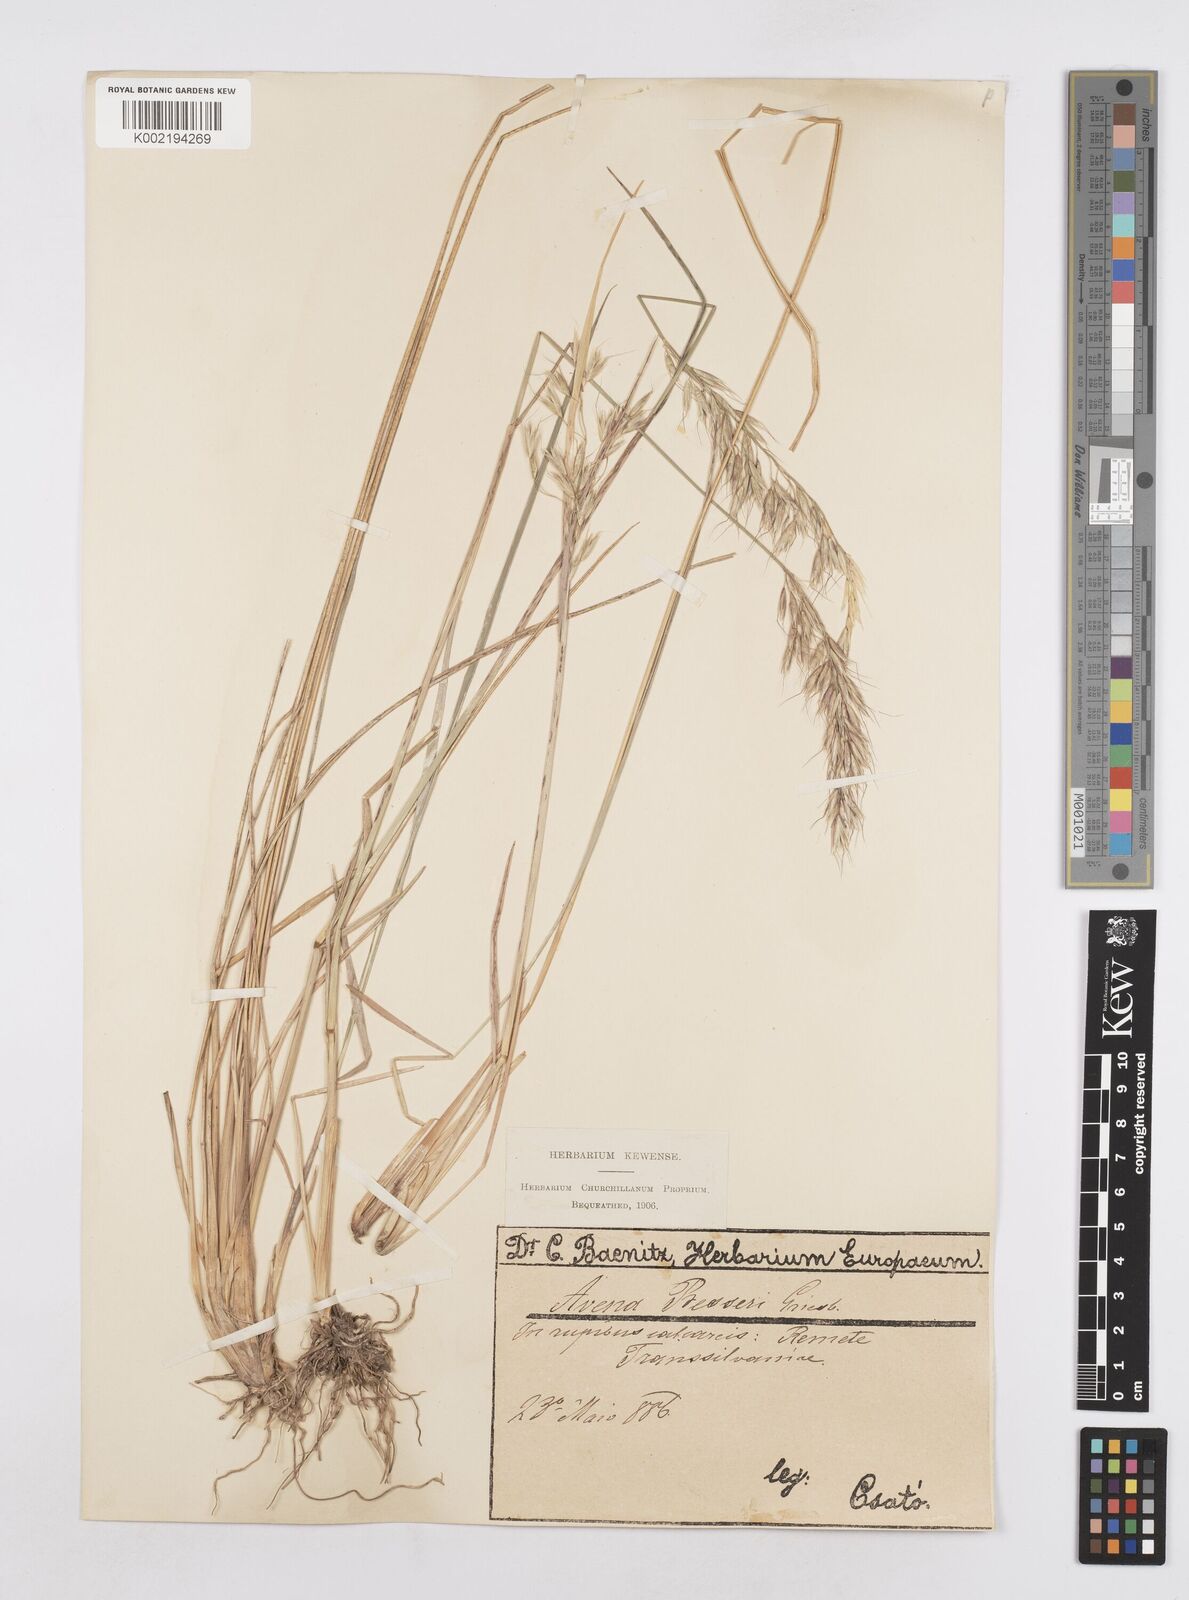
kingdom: Plantae
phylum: Tracheophyta
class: Liliopsida
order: Poales
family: Poaceae
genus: Helictotrichon
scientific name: Helictotrichon decorum
